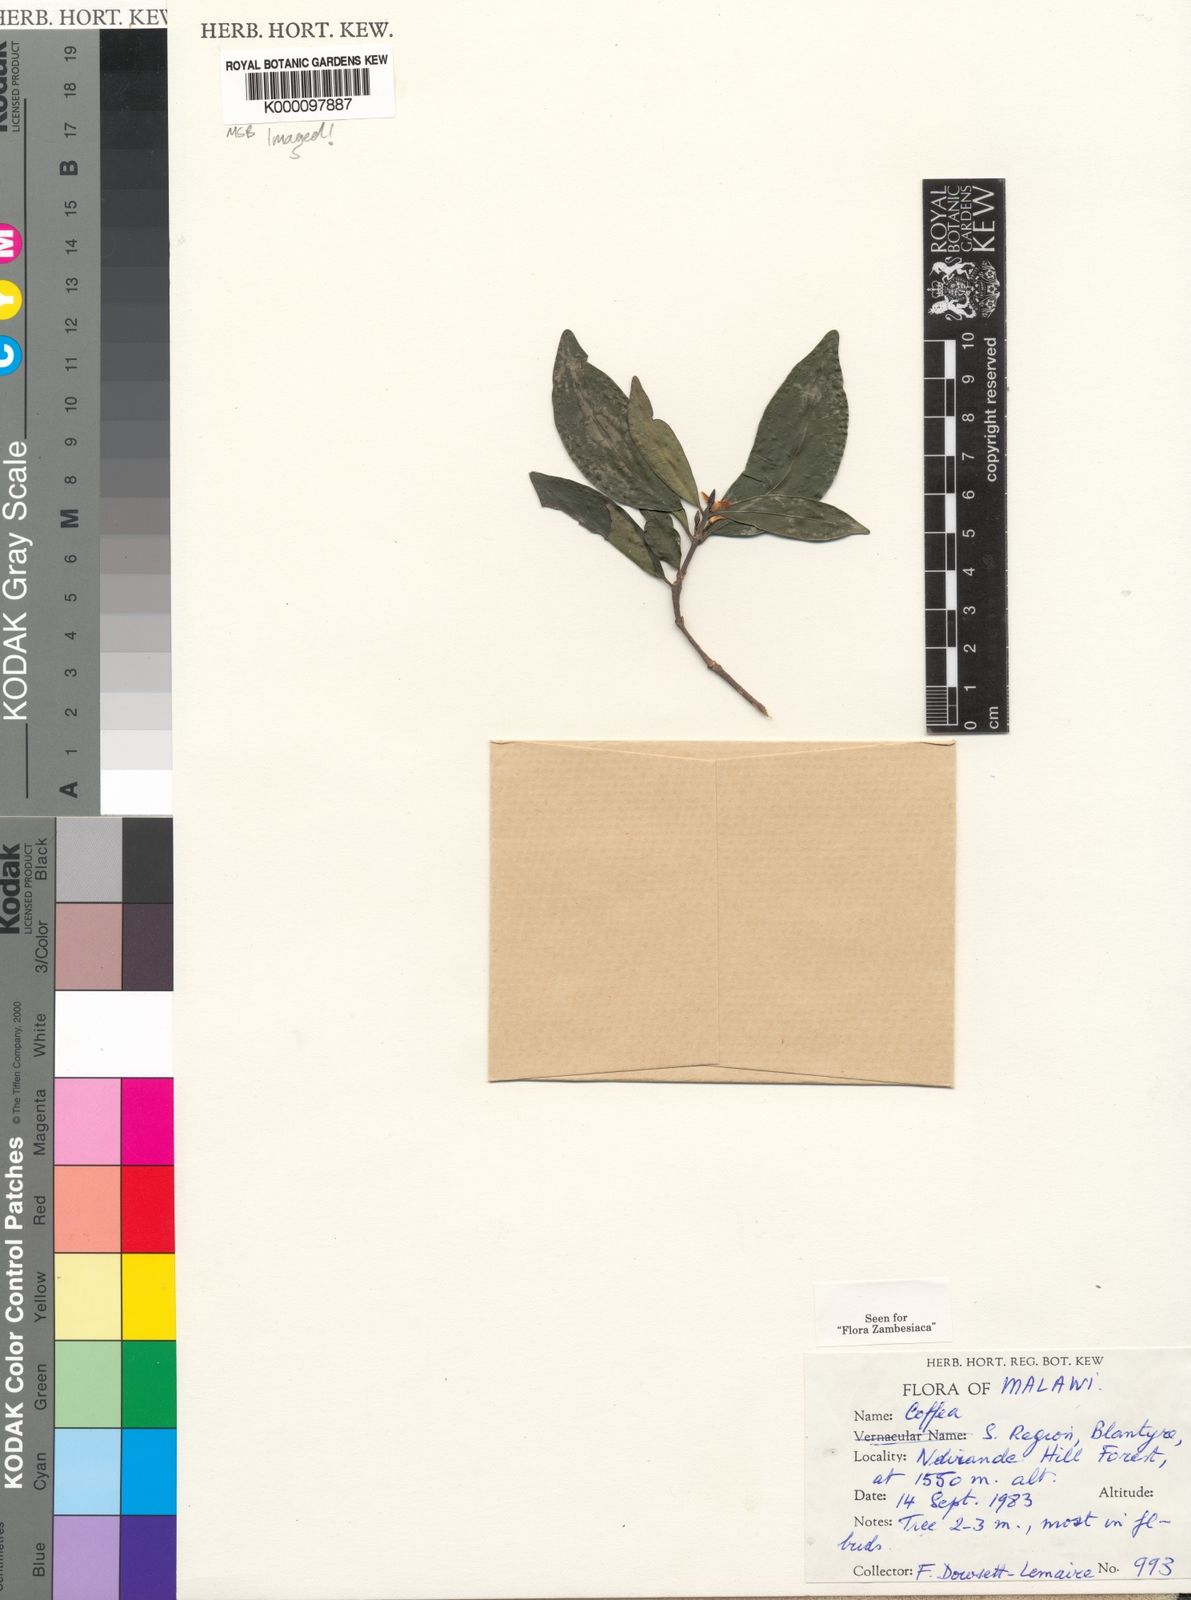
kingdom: Plantae
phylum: Tracheophyta
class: Magnoliopsida
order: Gentianales
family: Rubiaceae
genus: Coffea
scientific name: Coffea mufindiensis
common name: Wild coffee
